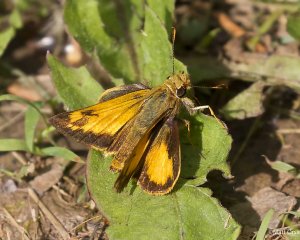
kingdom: Animalia
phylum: Arthropoda
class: Insecta
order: Lepidoptera
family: Hesperiidae
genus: Lon
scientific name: Lon zabulon
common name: Zabulon Skipper
